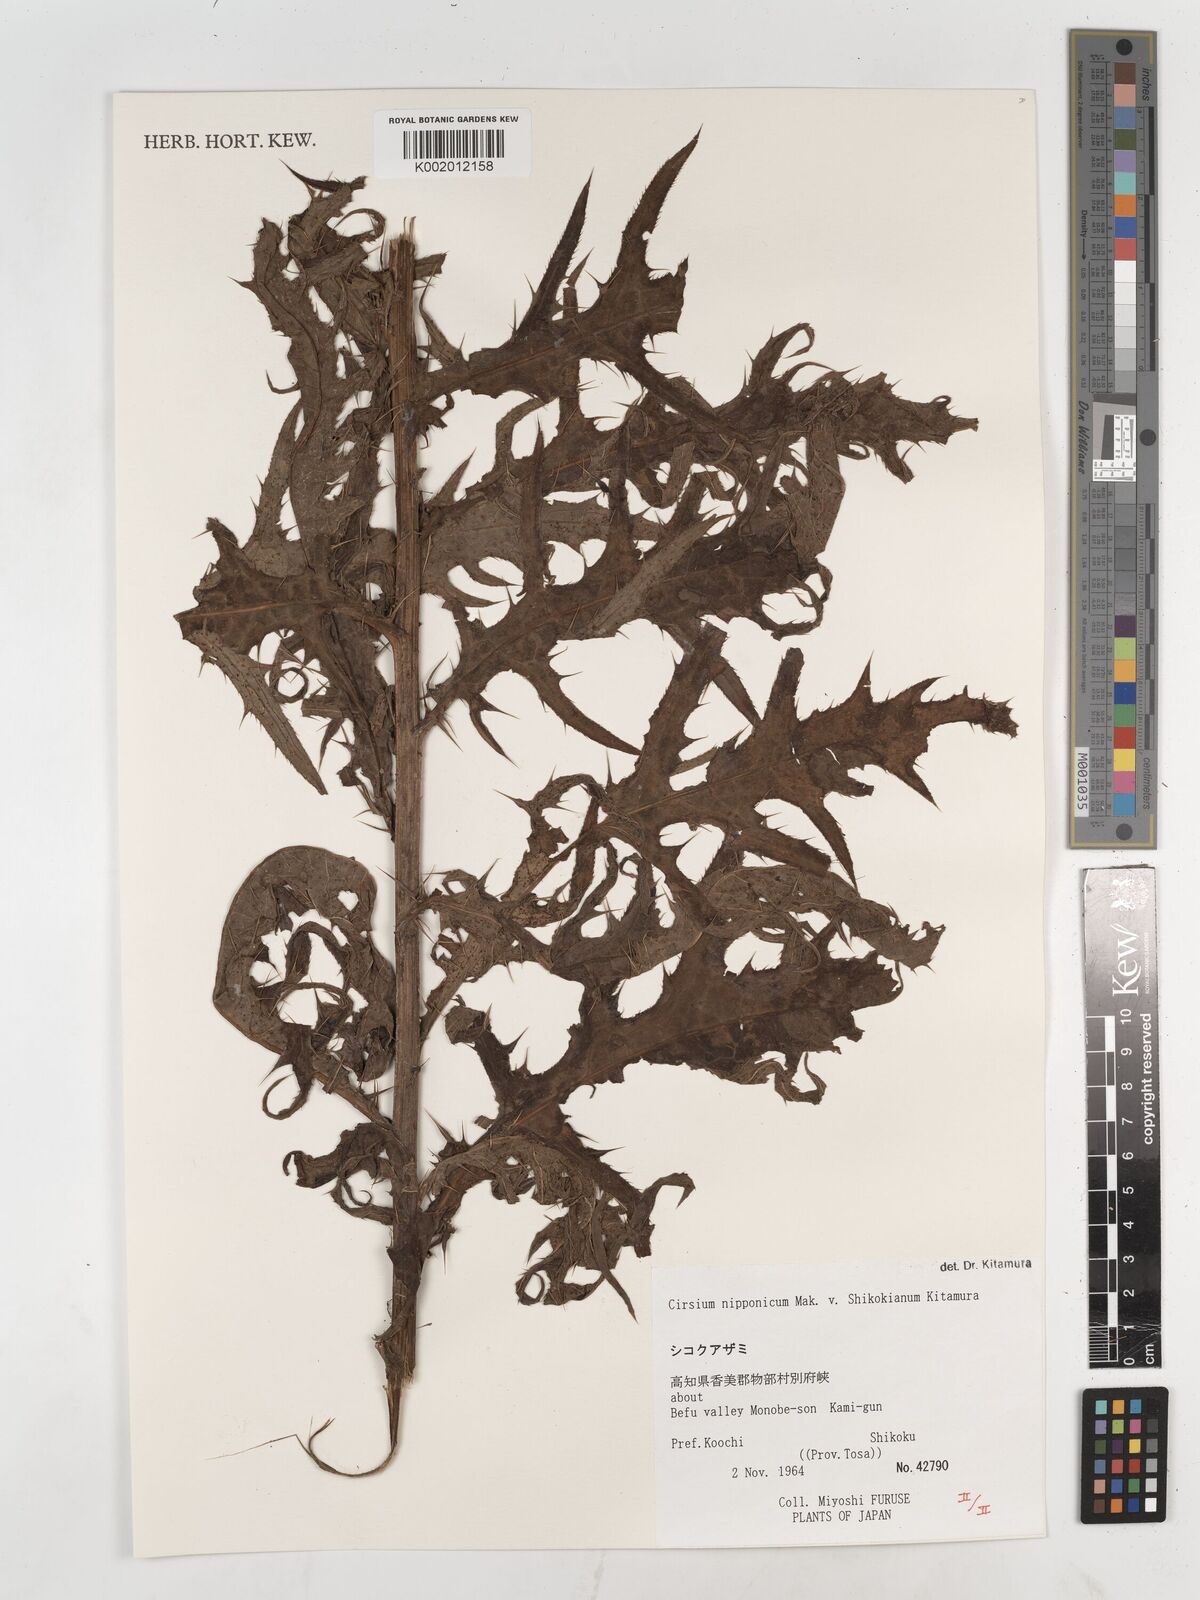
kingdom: Plantae
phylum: Tracheophyta
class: Magnoliopsida
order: Asterales
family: Asteraceae
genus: Cirsium
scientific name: Cirsium nippoense
